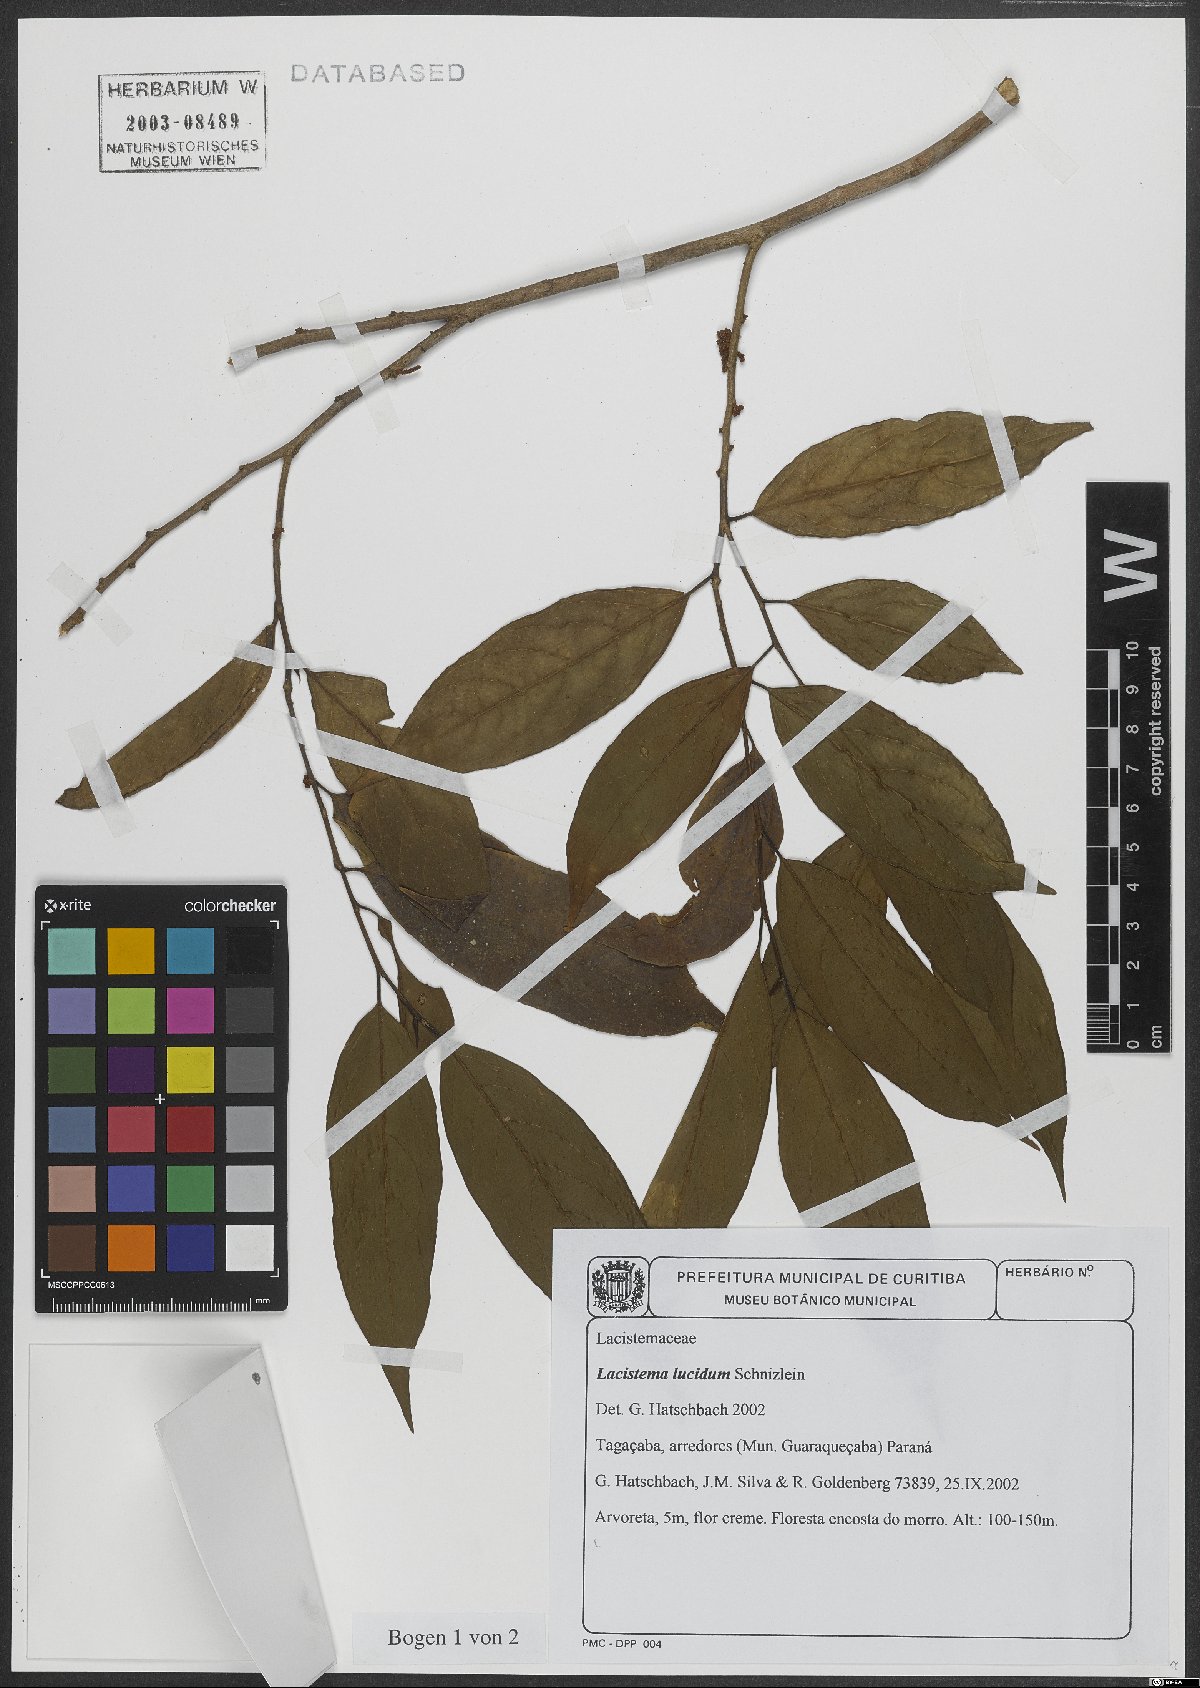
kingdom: Plantae
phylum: Tracheophyta
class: Magnoliopsida
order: Malpighiales
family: Lacistemataceae
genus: Lacistema
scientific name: Lacistema lucidum
